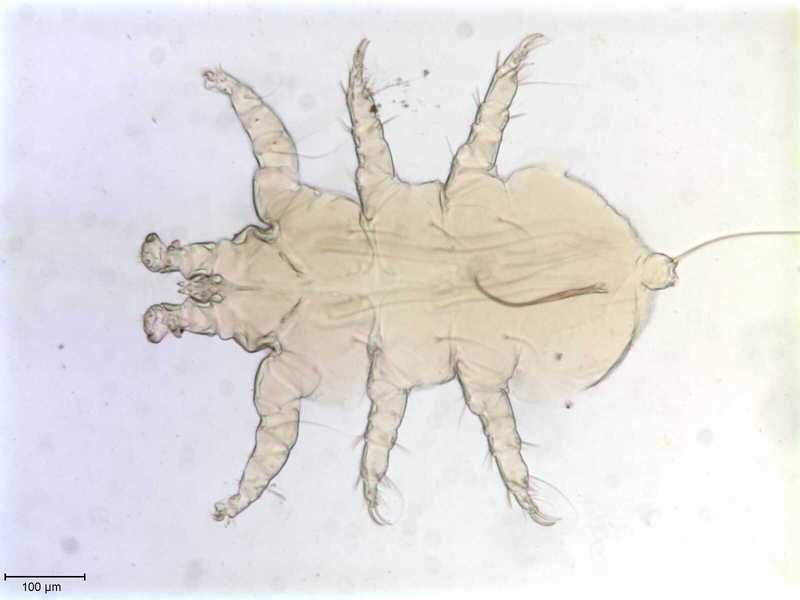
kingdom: Animalia
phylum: Arthropoda
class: Arachnida
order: Trombidiformes
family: Myobiidae
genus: Eadiea
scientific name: Eadiea
